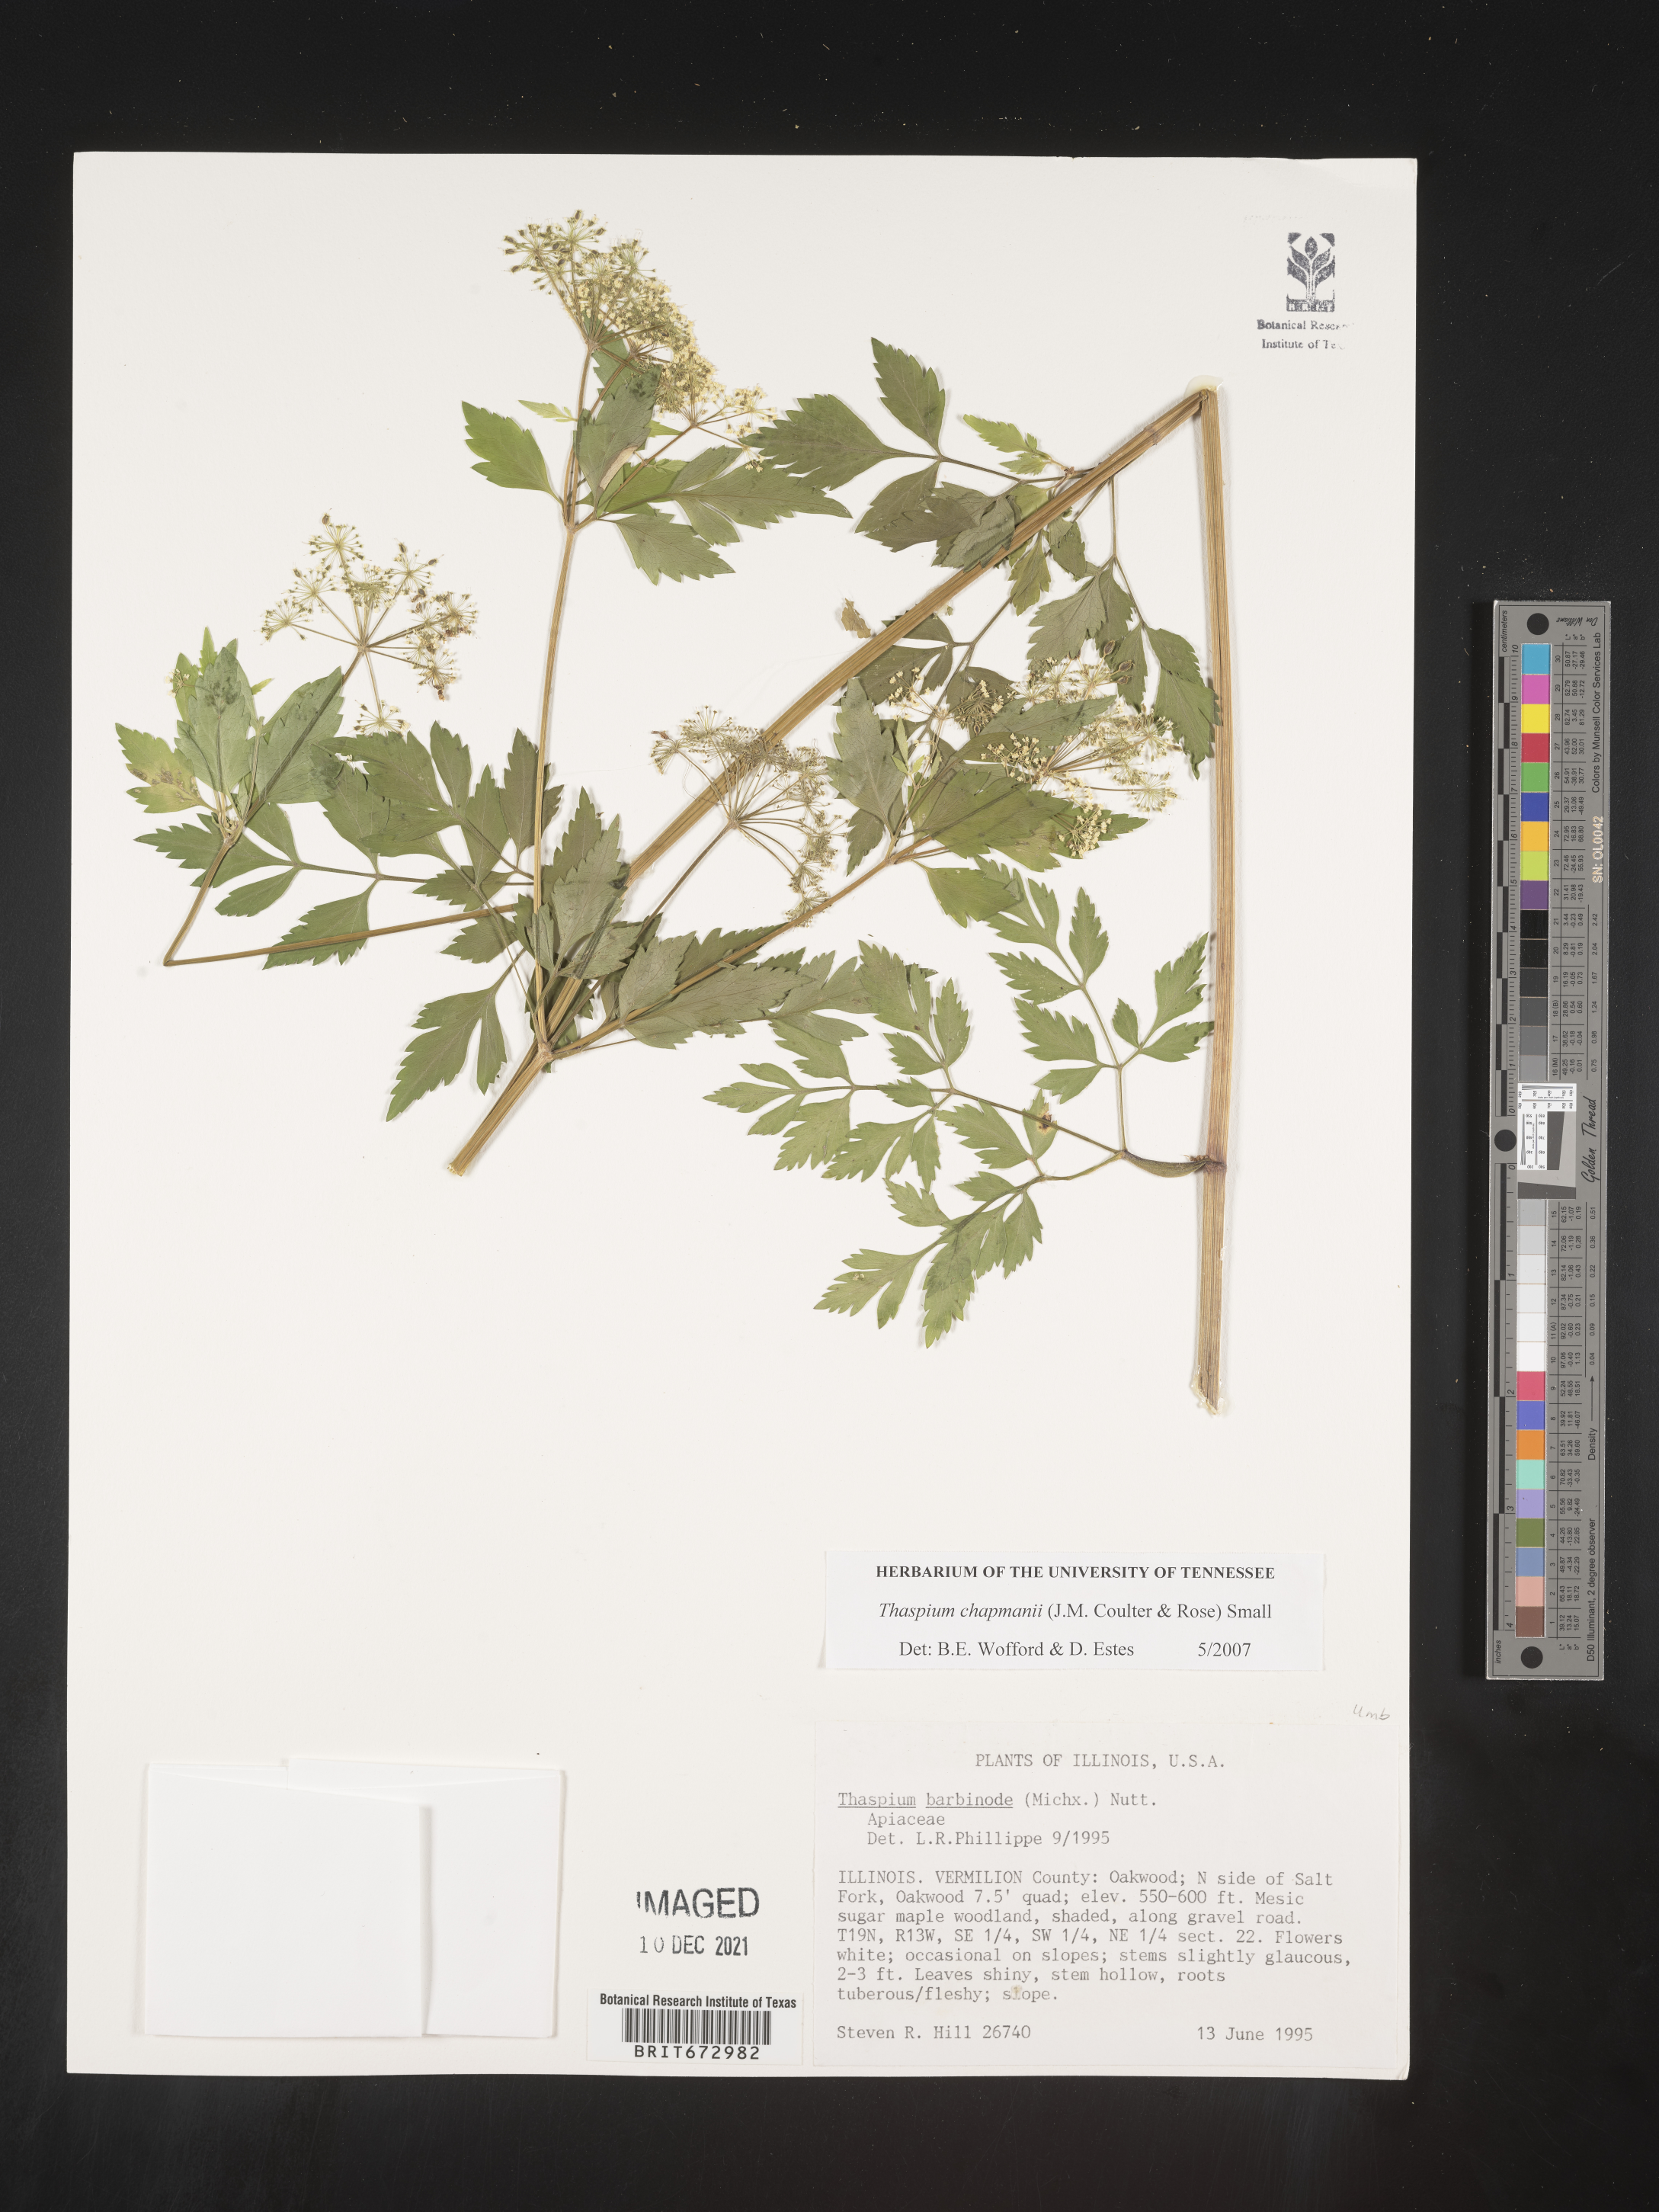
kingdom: Plantae
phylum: Tracheophyta
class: Magnoliopsida
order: Apiales
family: Apiaceae
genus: Thaspium
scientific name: Thaspium barbinode
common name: Bearded meadow-parsnip
